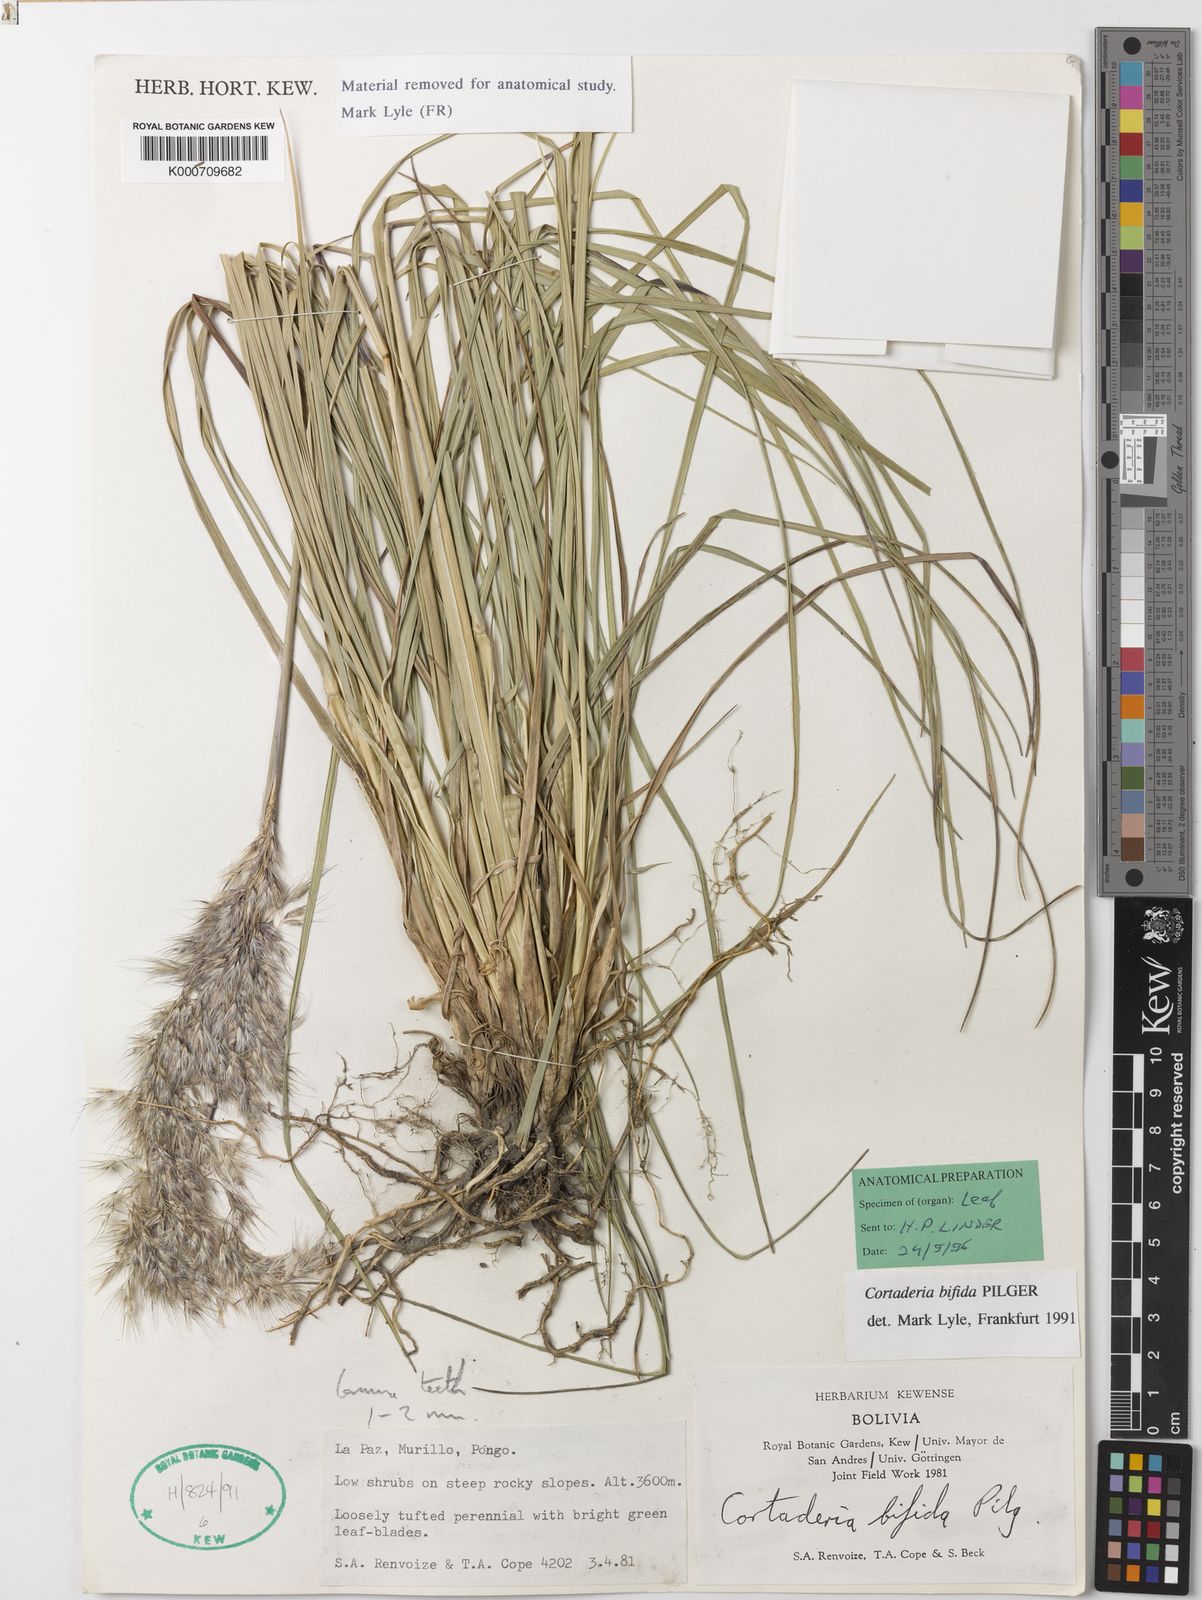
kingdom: Plantae
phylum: Tracheophyta
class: Liliopsida
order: Poales
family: Poaceae
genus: Cortaderia
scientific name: Cortaderia bifida
